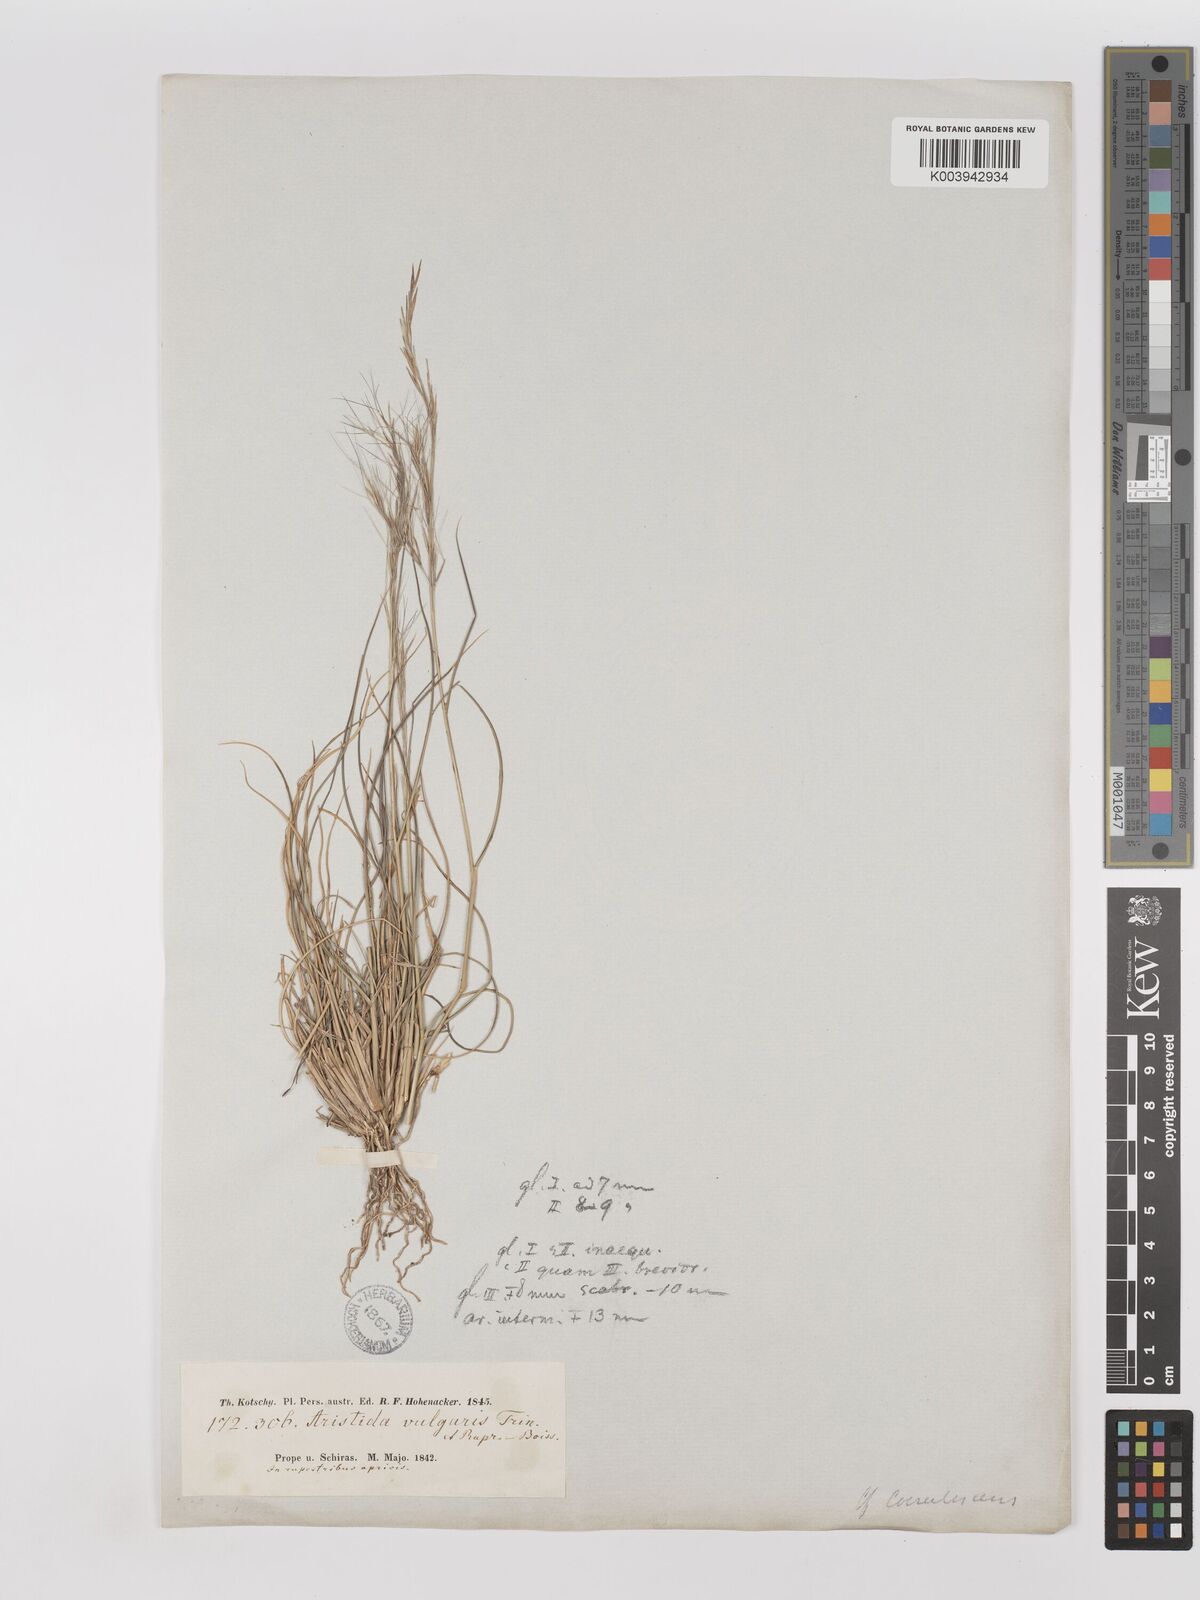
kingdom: Plantae
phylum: Tracheophyta
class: Liliopsida
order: Poales
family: Poaceae
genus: Aristida
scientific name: Aristida adscensionis
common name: Sixweeks threeawn
